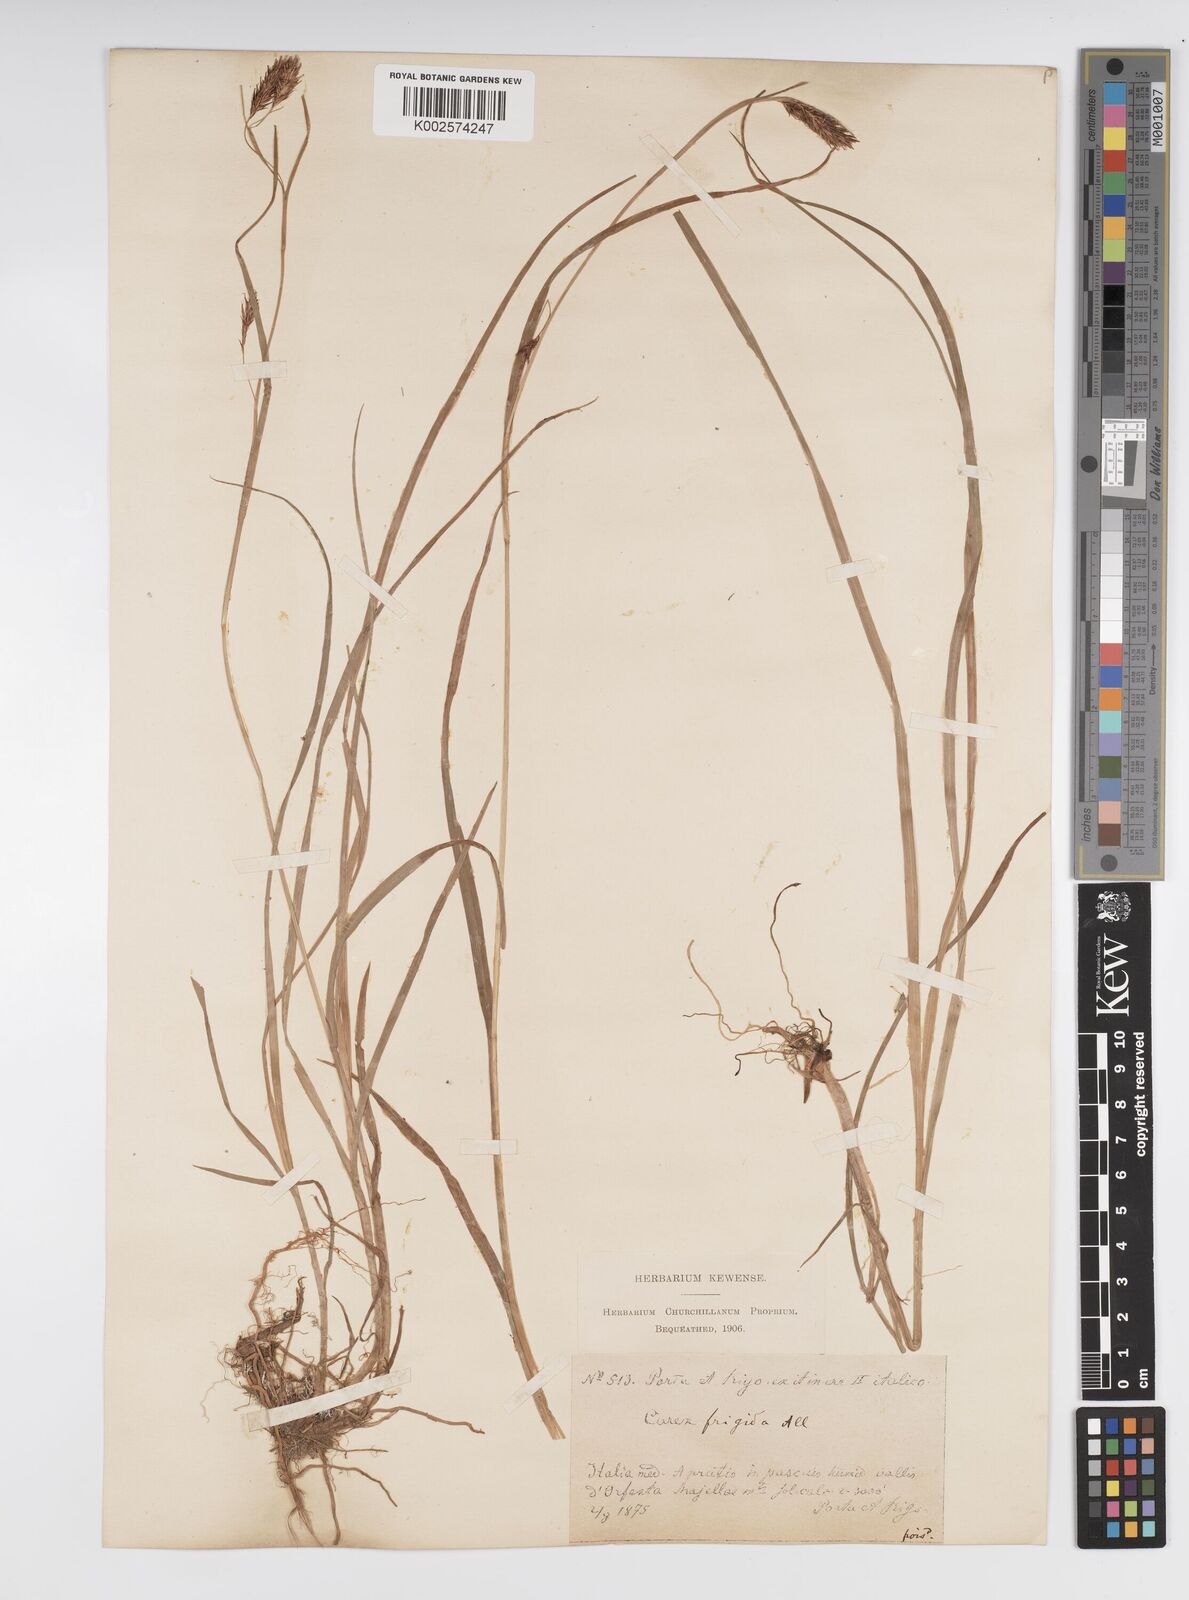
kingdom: Plantae
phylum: Tracheophyta
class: Liliopsida
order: Poales
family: Cyperaceae
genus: Carex
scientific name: Carex frigida
